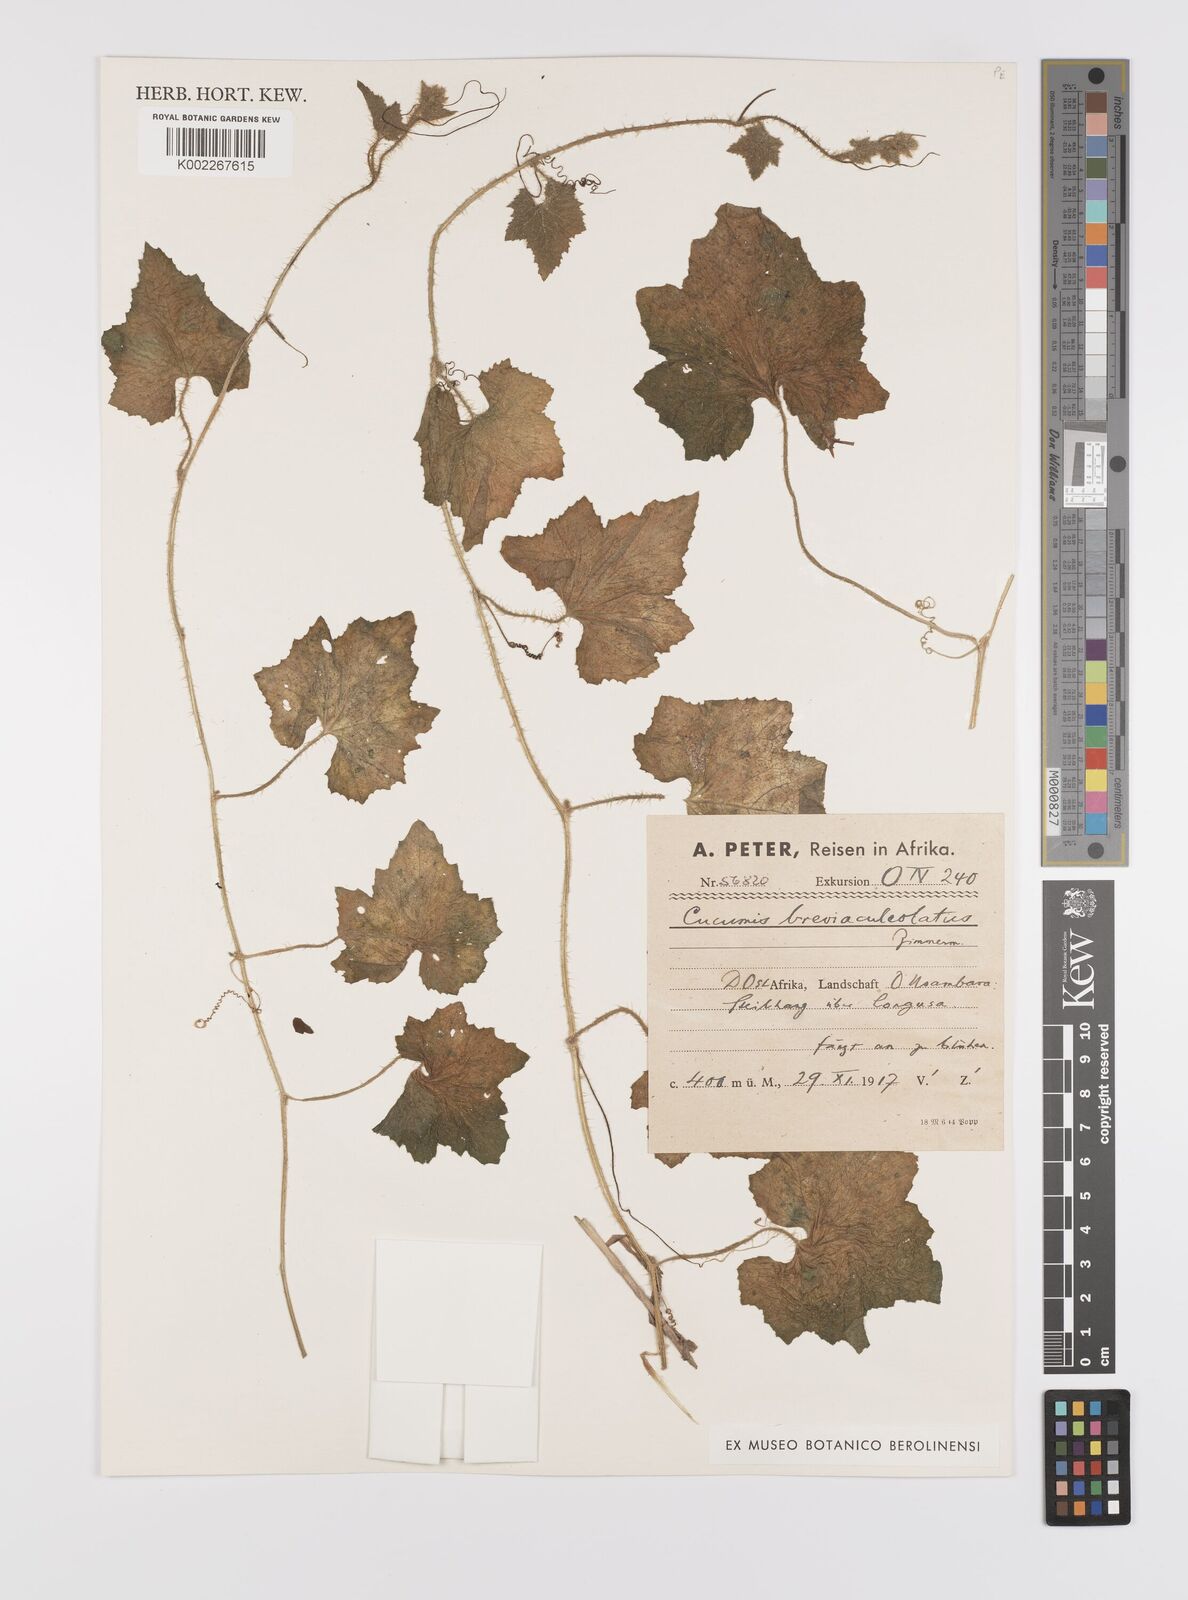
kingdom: Plantae
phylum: Tracheophyta
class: Magnoliopsida
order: Cucurbitales
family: Cucurbitaceae
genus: Cucumis
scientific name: Cucumis sacleuxii
